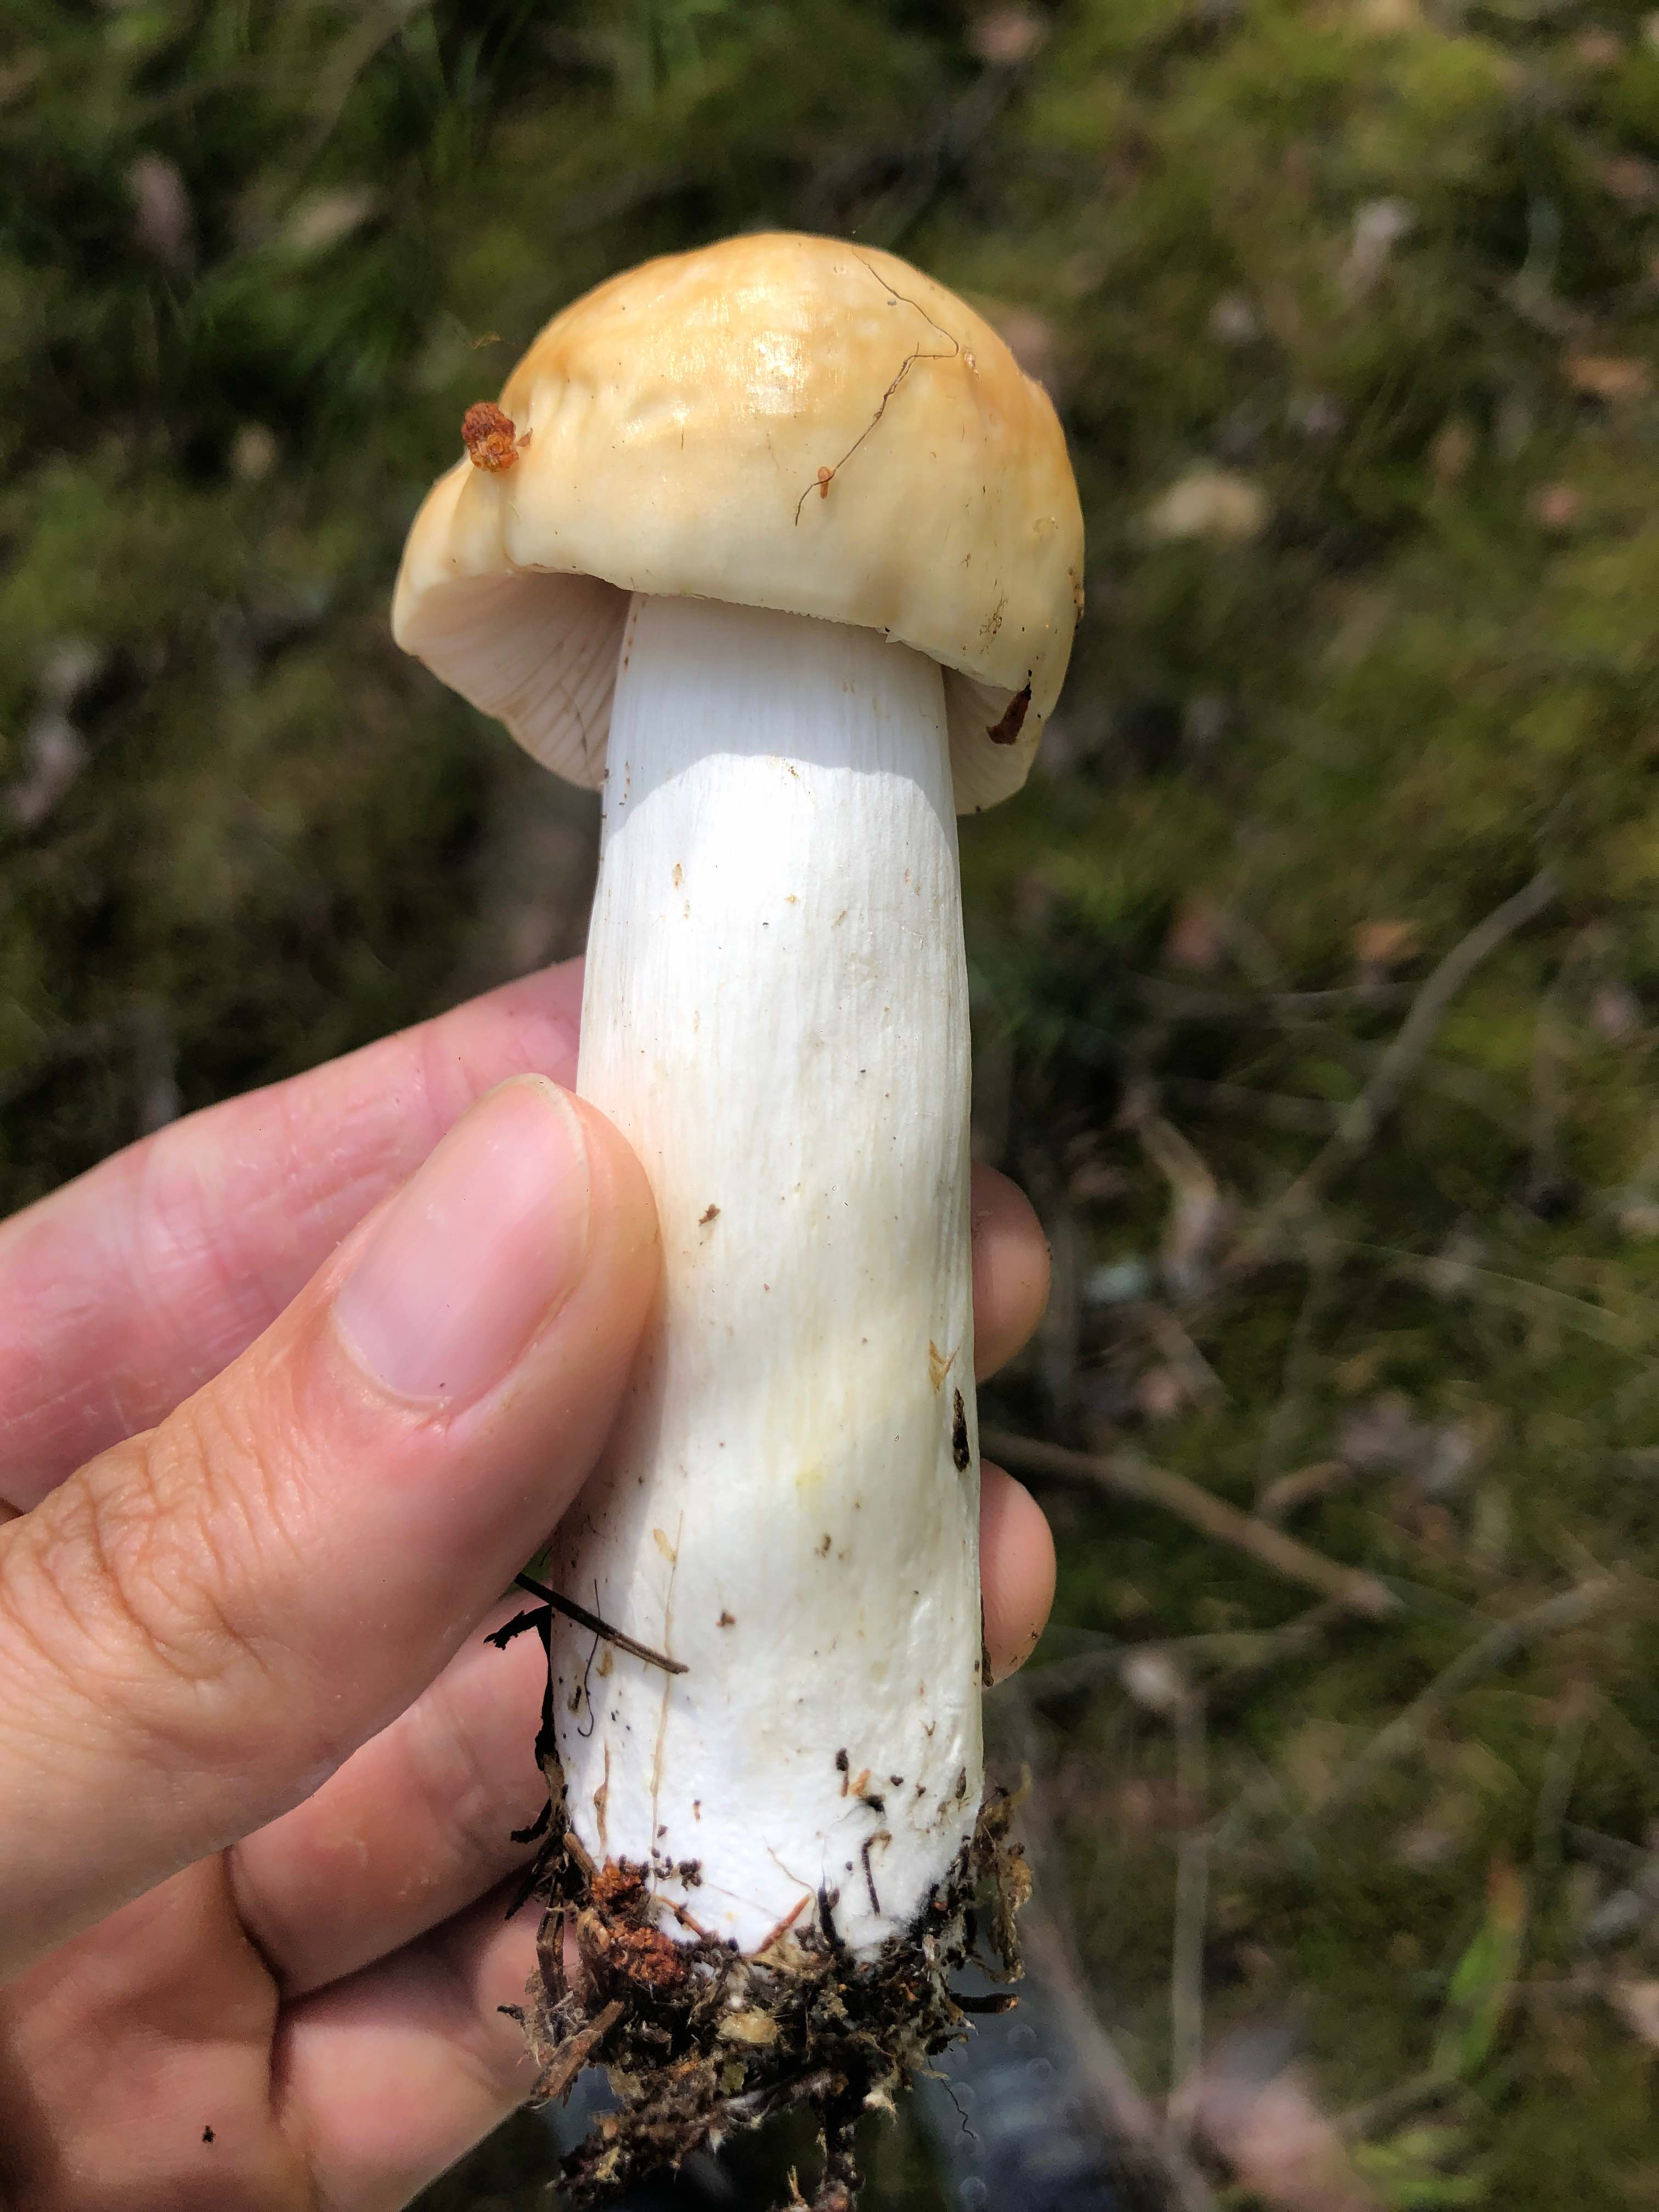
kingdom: Fungi
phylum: Basidiomycota
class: Agaricomycetes
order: Russulales
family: Russulaceae
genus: Russula
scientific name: Russula
